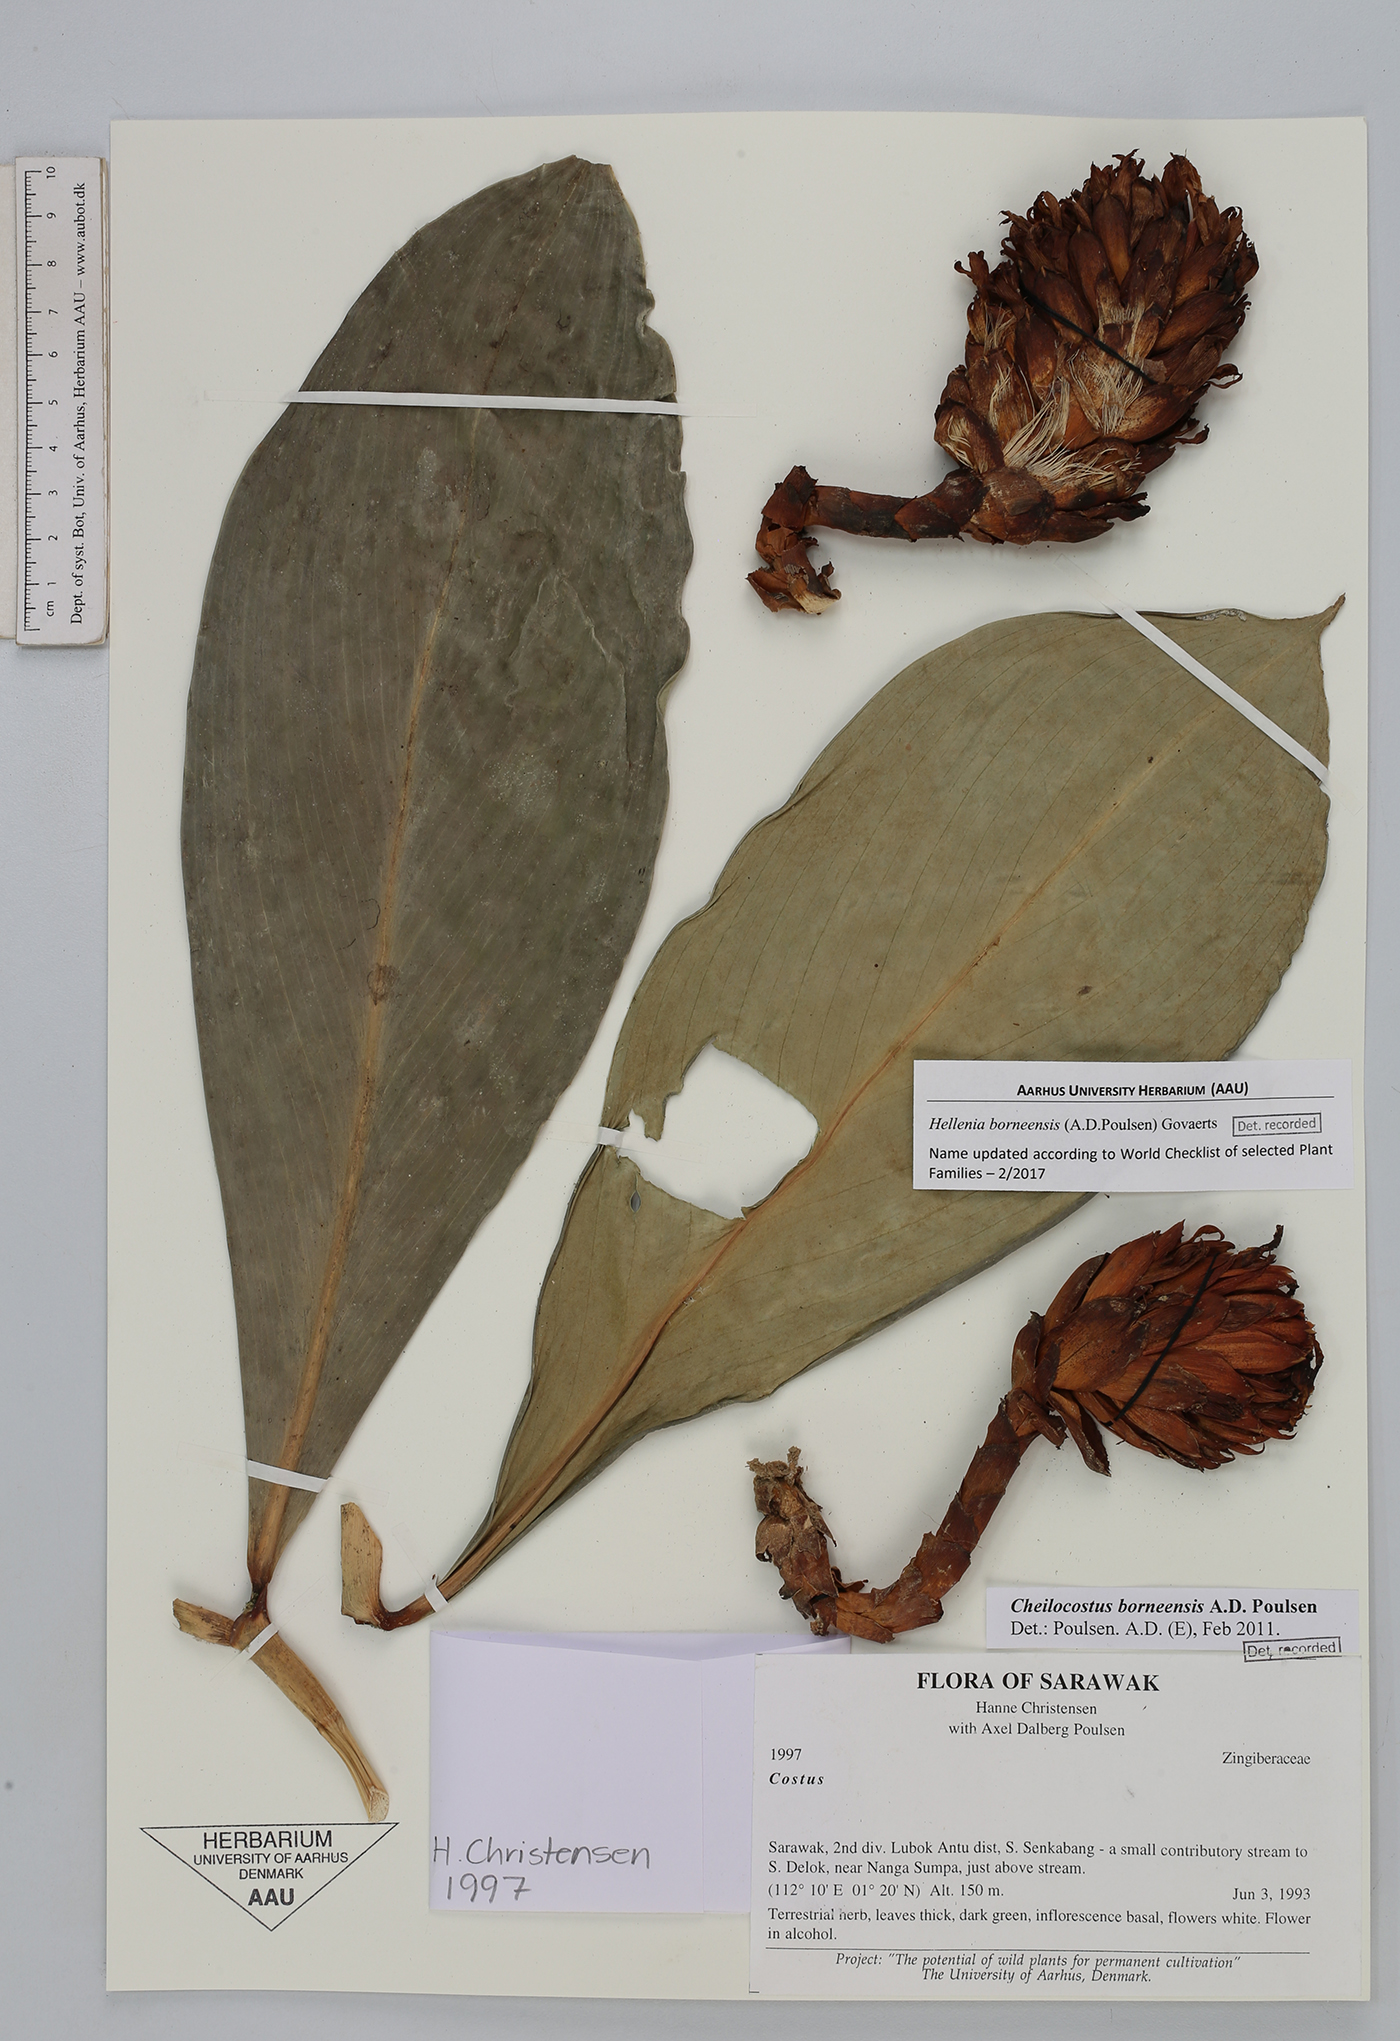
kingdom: Plantae
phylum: Tracheophyta
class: Liliopsida
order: Zingiberales
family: Costaceae
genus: Hellenia
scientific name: Hellenia borneensis
